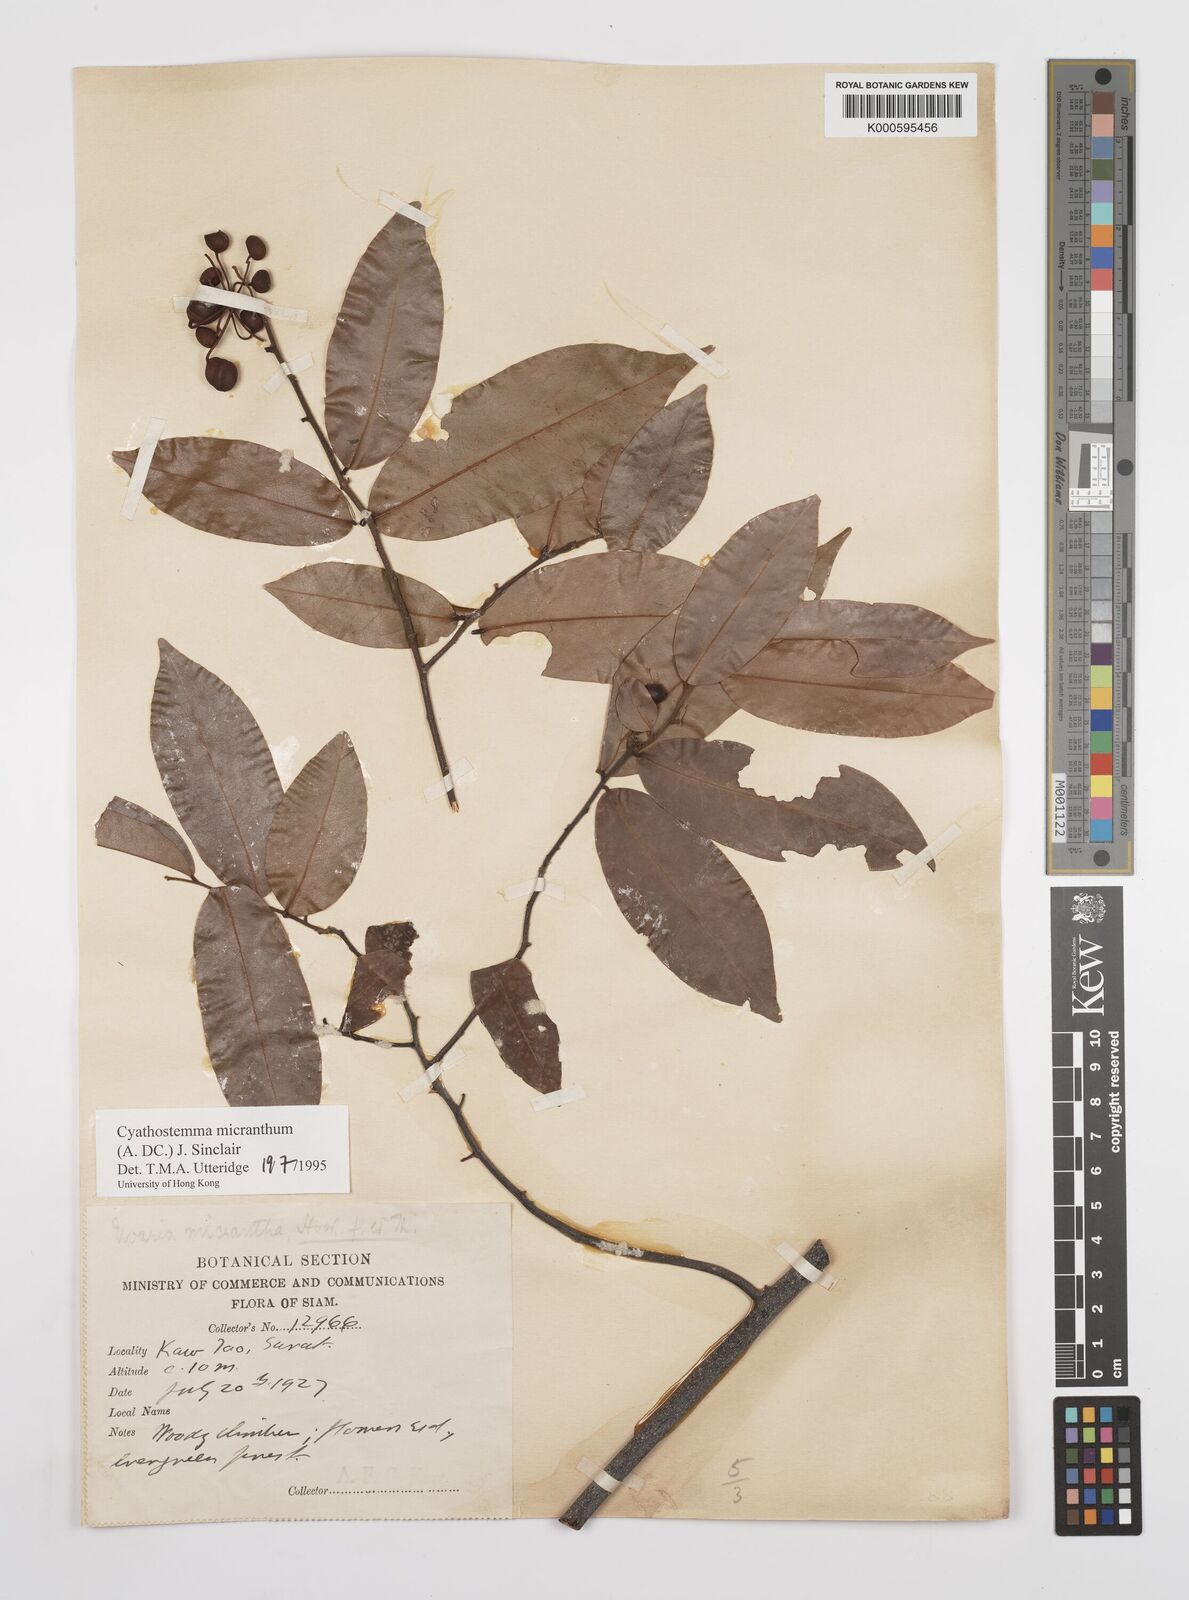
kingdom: Plantae
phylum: Tracheophyta
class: Magnoliopsida
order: Magnoliales
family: Annonaceae
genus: Uvaria
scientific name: Uvaria micrantha
